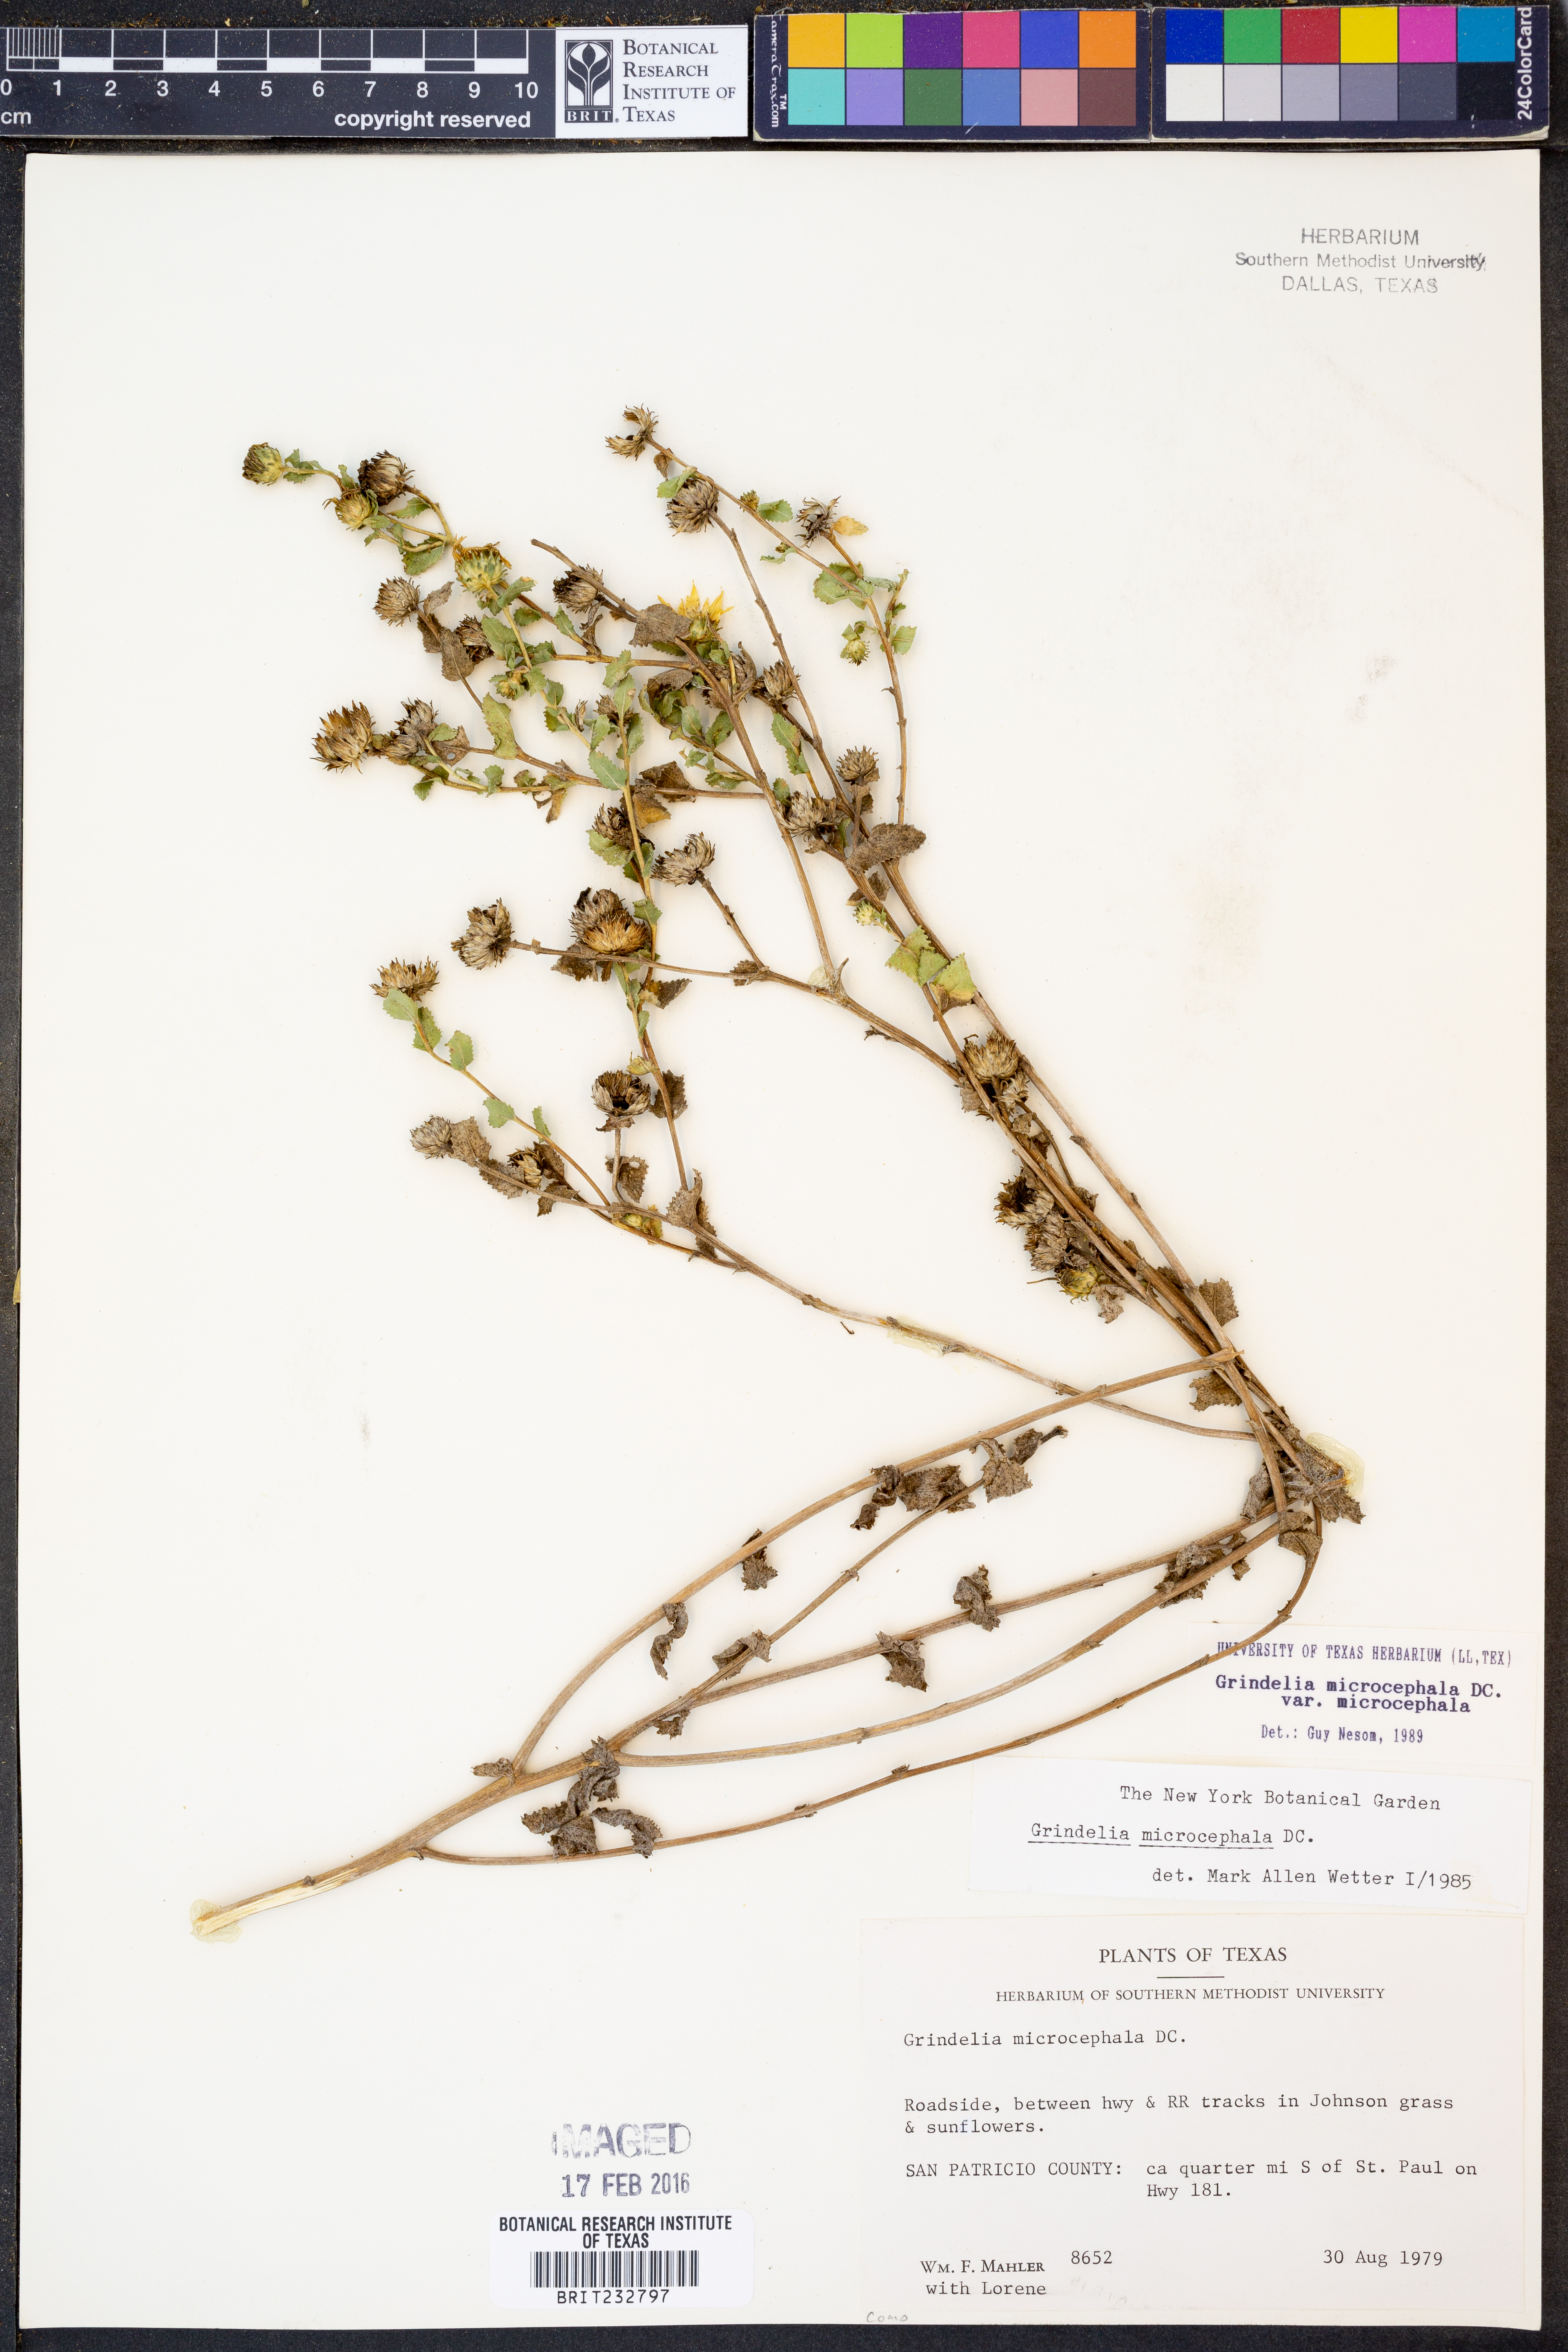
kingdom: Plantae
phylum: Tracheophyta
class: Magnoliopsida
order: Asterales
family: Asteraceae
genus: Grindelia
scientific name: Grindelia microcephala
